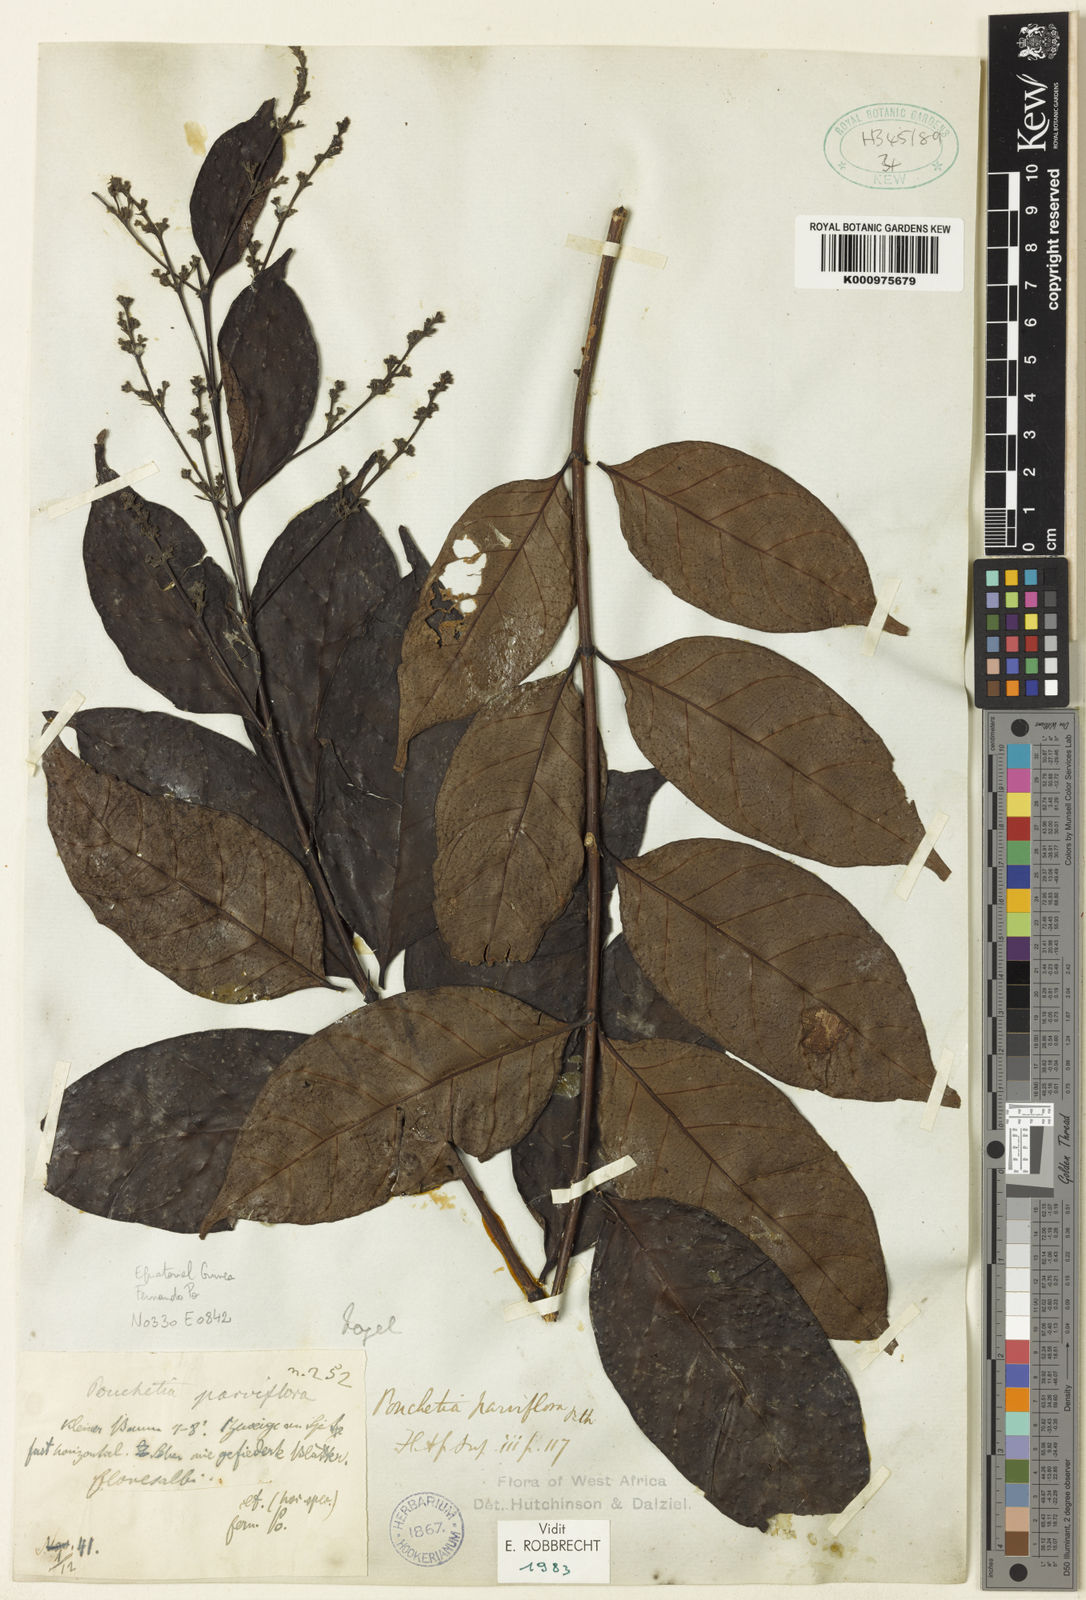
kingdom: Plantae
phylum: Tracheophyta
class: Magnoliopsida
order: Gentianales
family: Rubiaceae
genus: Pouchetia
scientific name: Pouchetia parviflora
